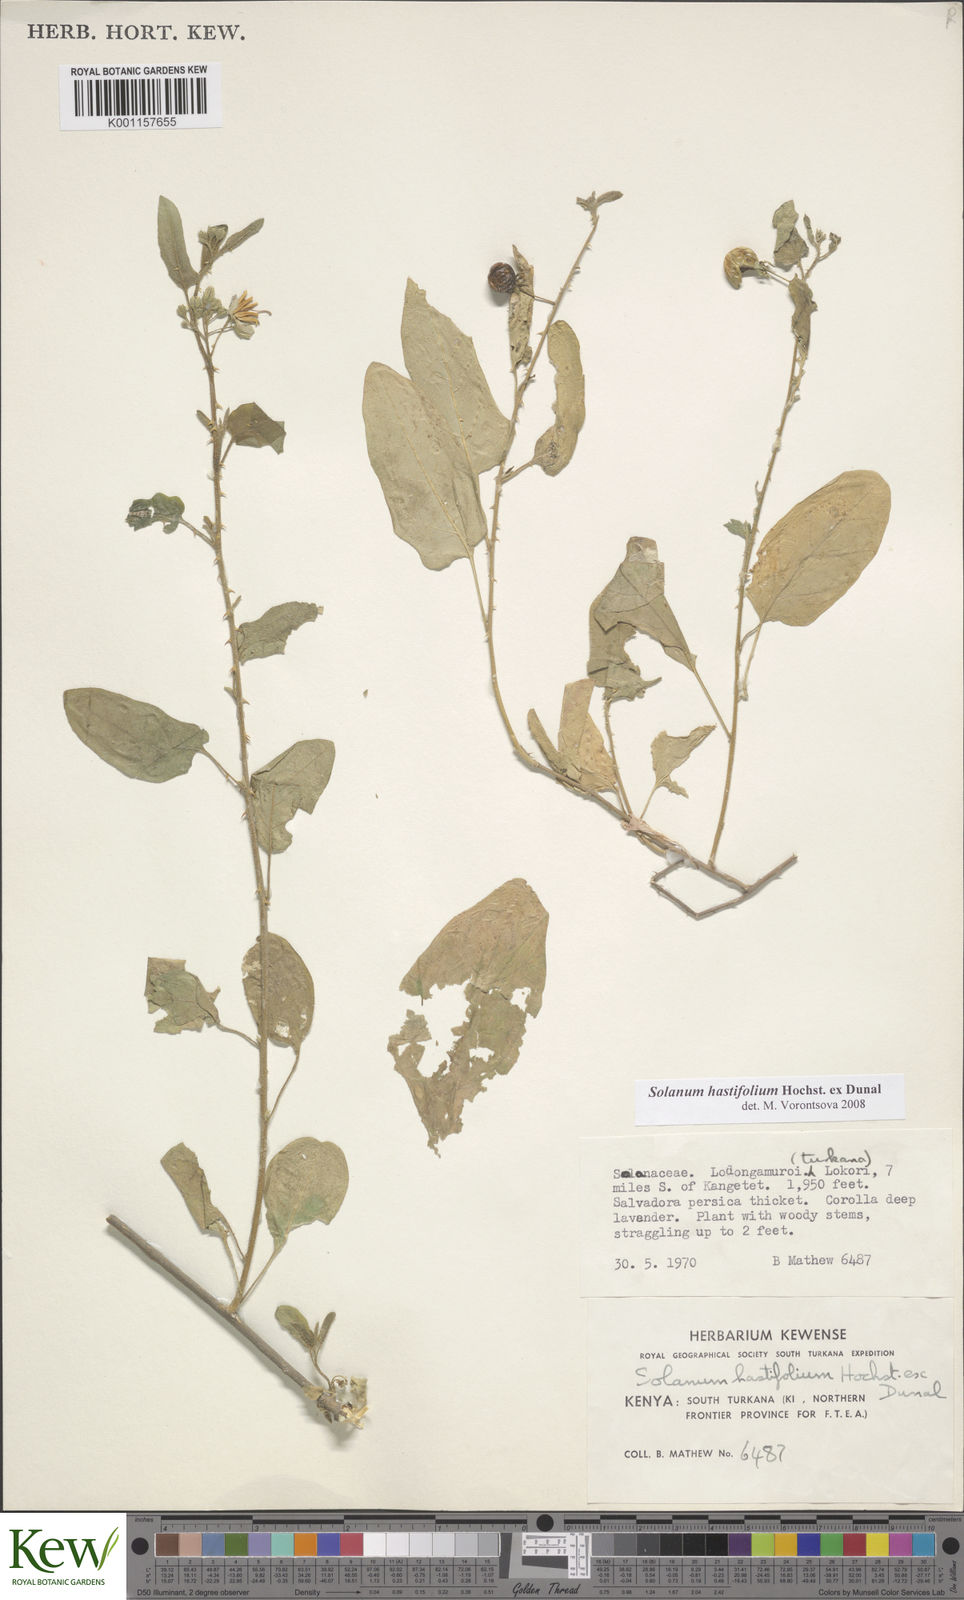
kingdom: Plantae
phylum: Tracheophyta
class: Magnoliopsida
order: Solanales
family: Solanaceae
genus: Solanum
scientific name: Solanum hastifolium
